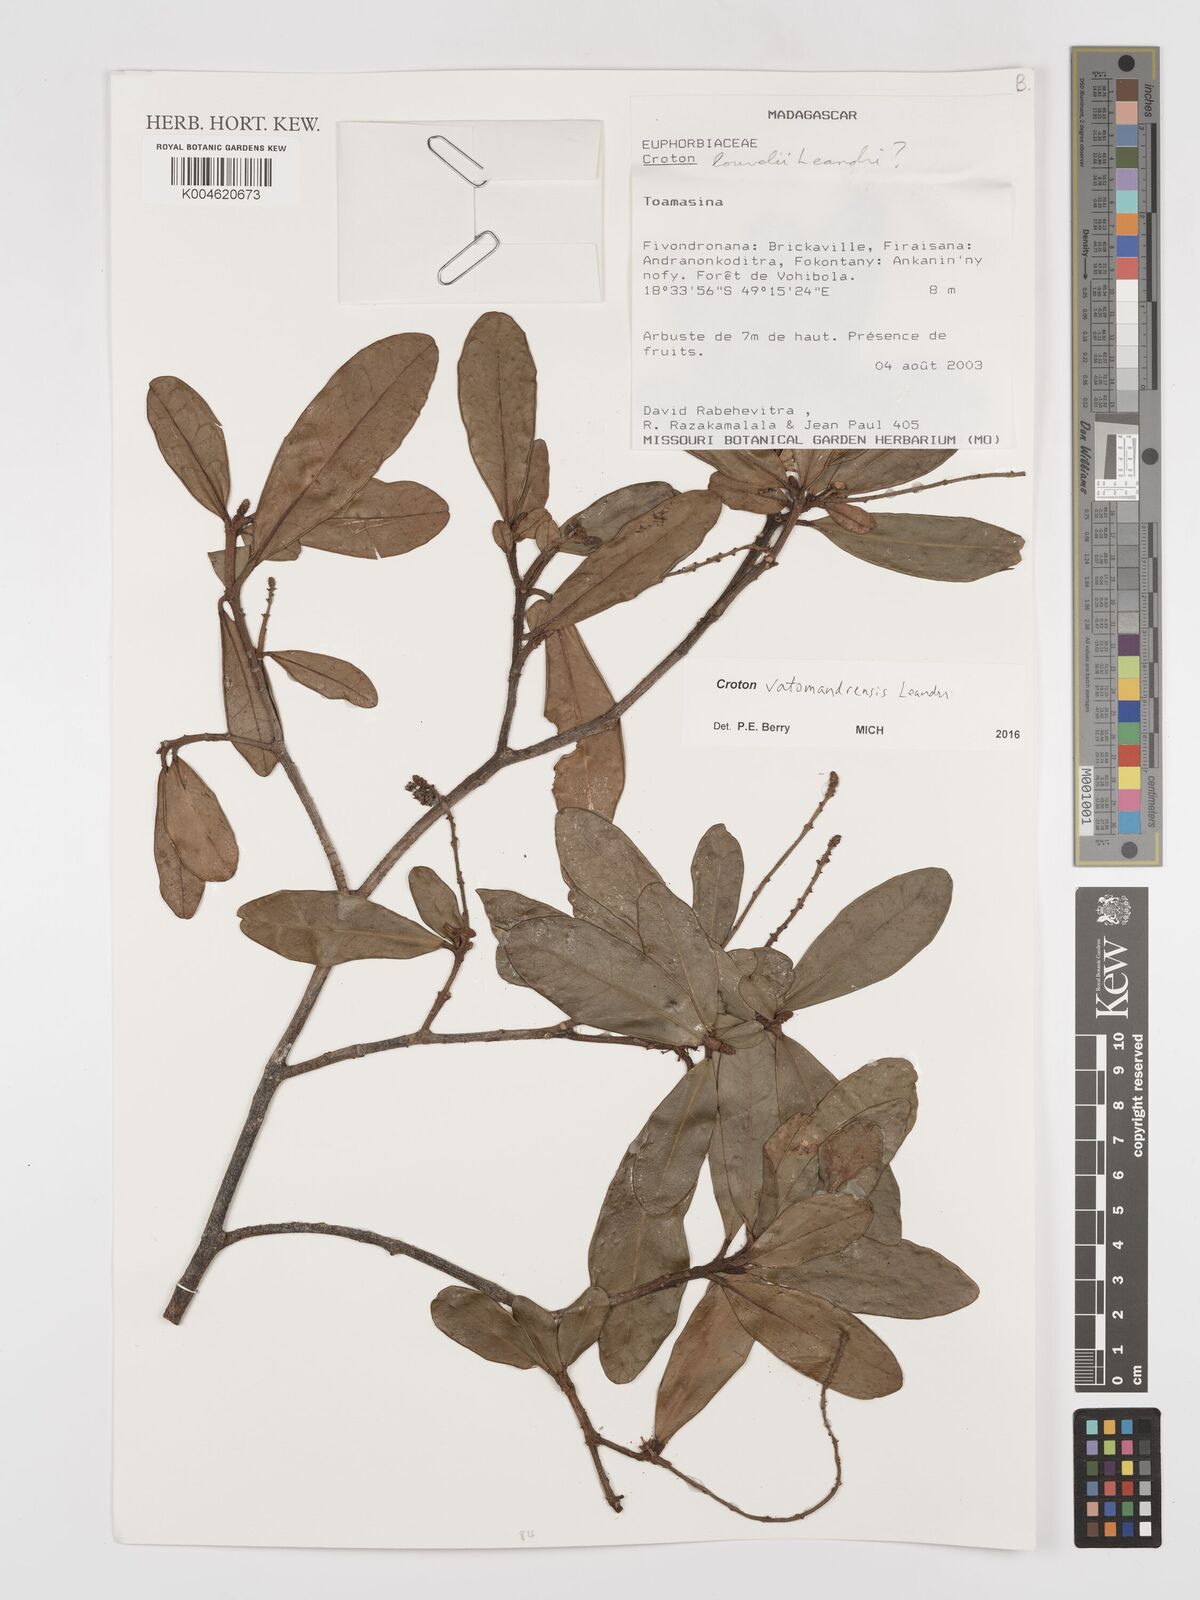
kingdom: Plantae
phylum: Tracheophyta
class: Magnoliopsida
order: Malpighiales
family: Euphorbiaceae
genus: Croton
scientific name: Croton vatomandrensis
